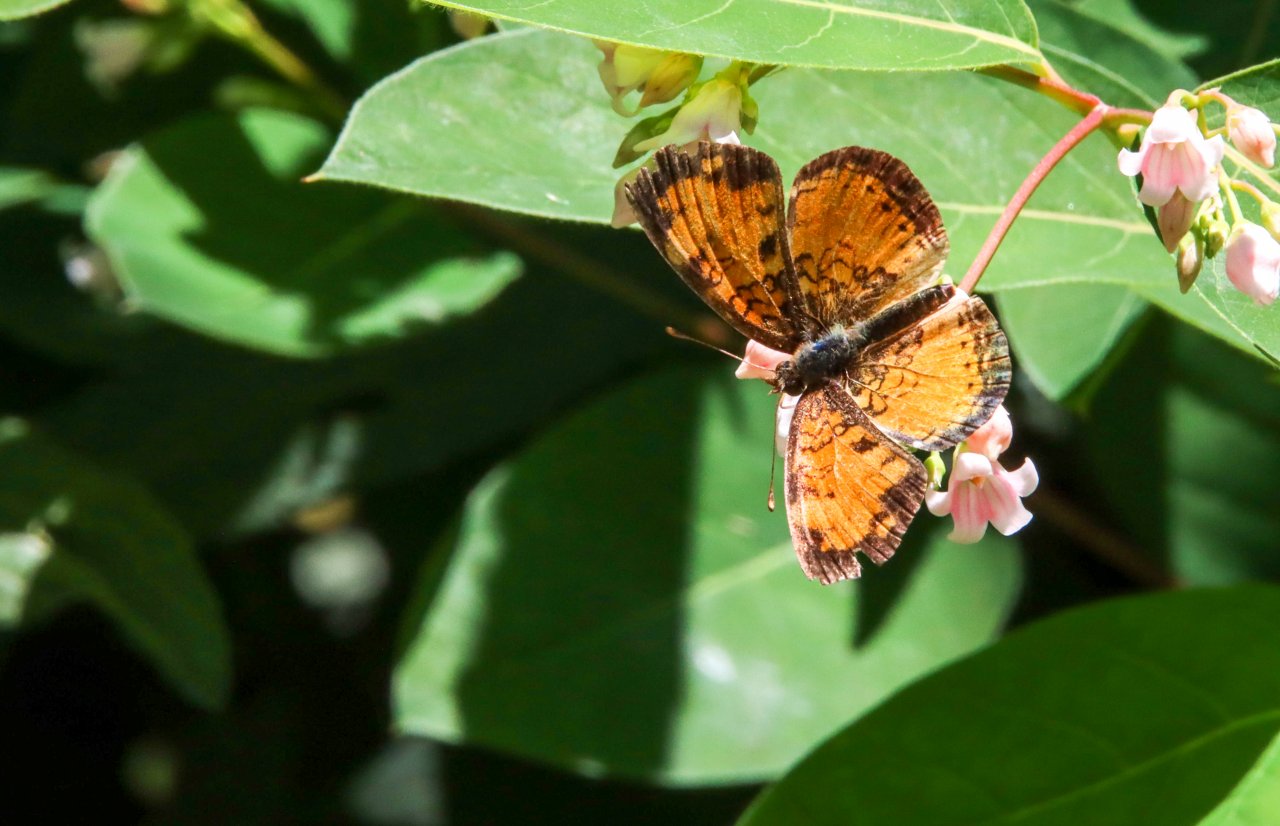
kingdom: Animalia
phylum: Arthropoda
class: Insecta
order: Lepidoptera
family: Nymphalidae
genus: Phyciodes
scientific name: Phyciodes tharos
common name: Northern Crescent
